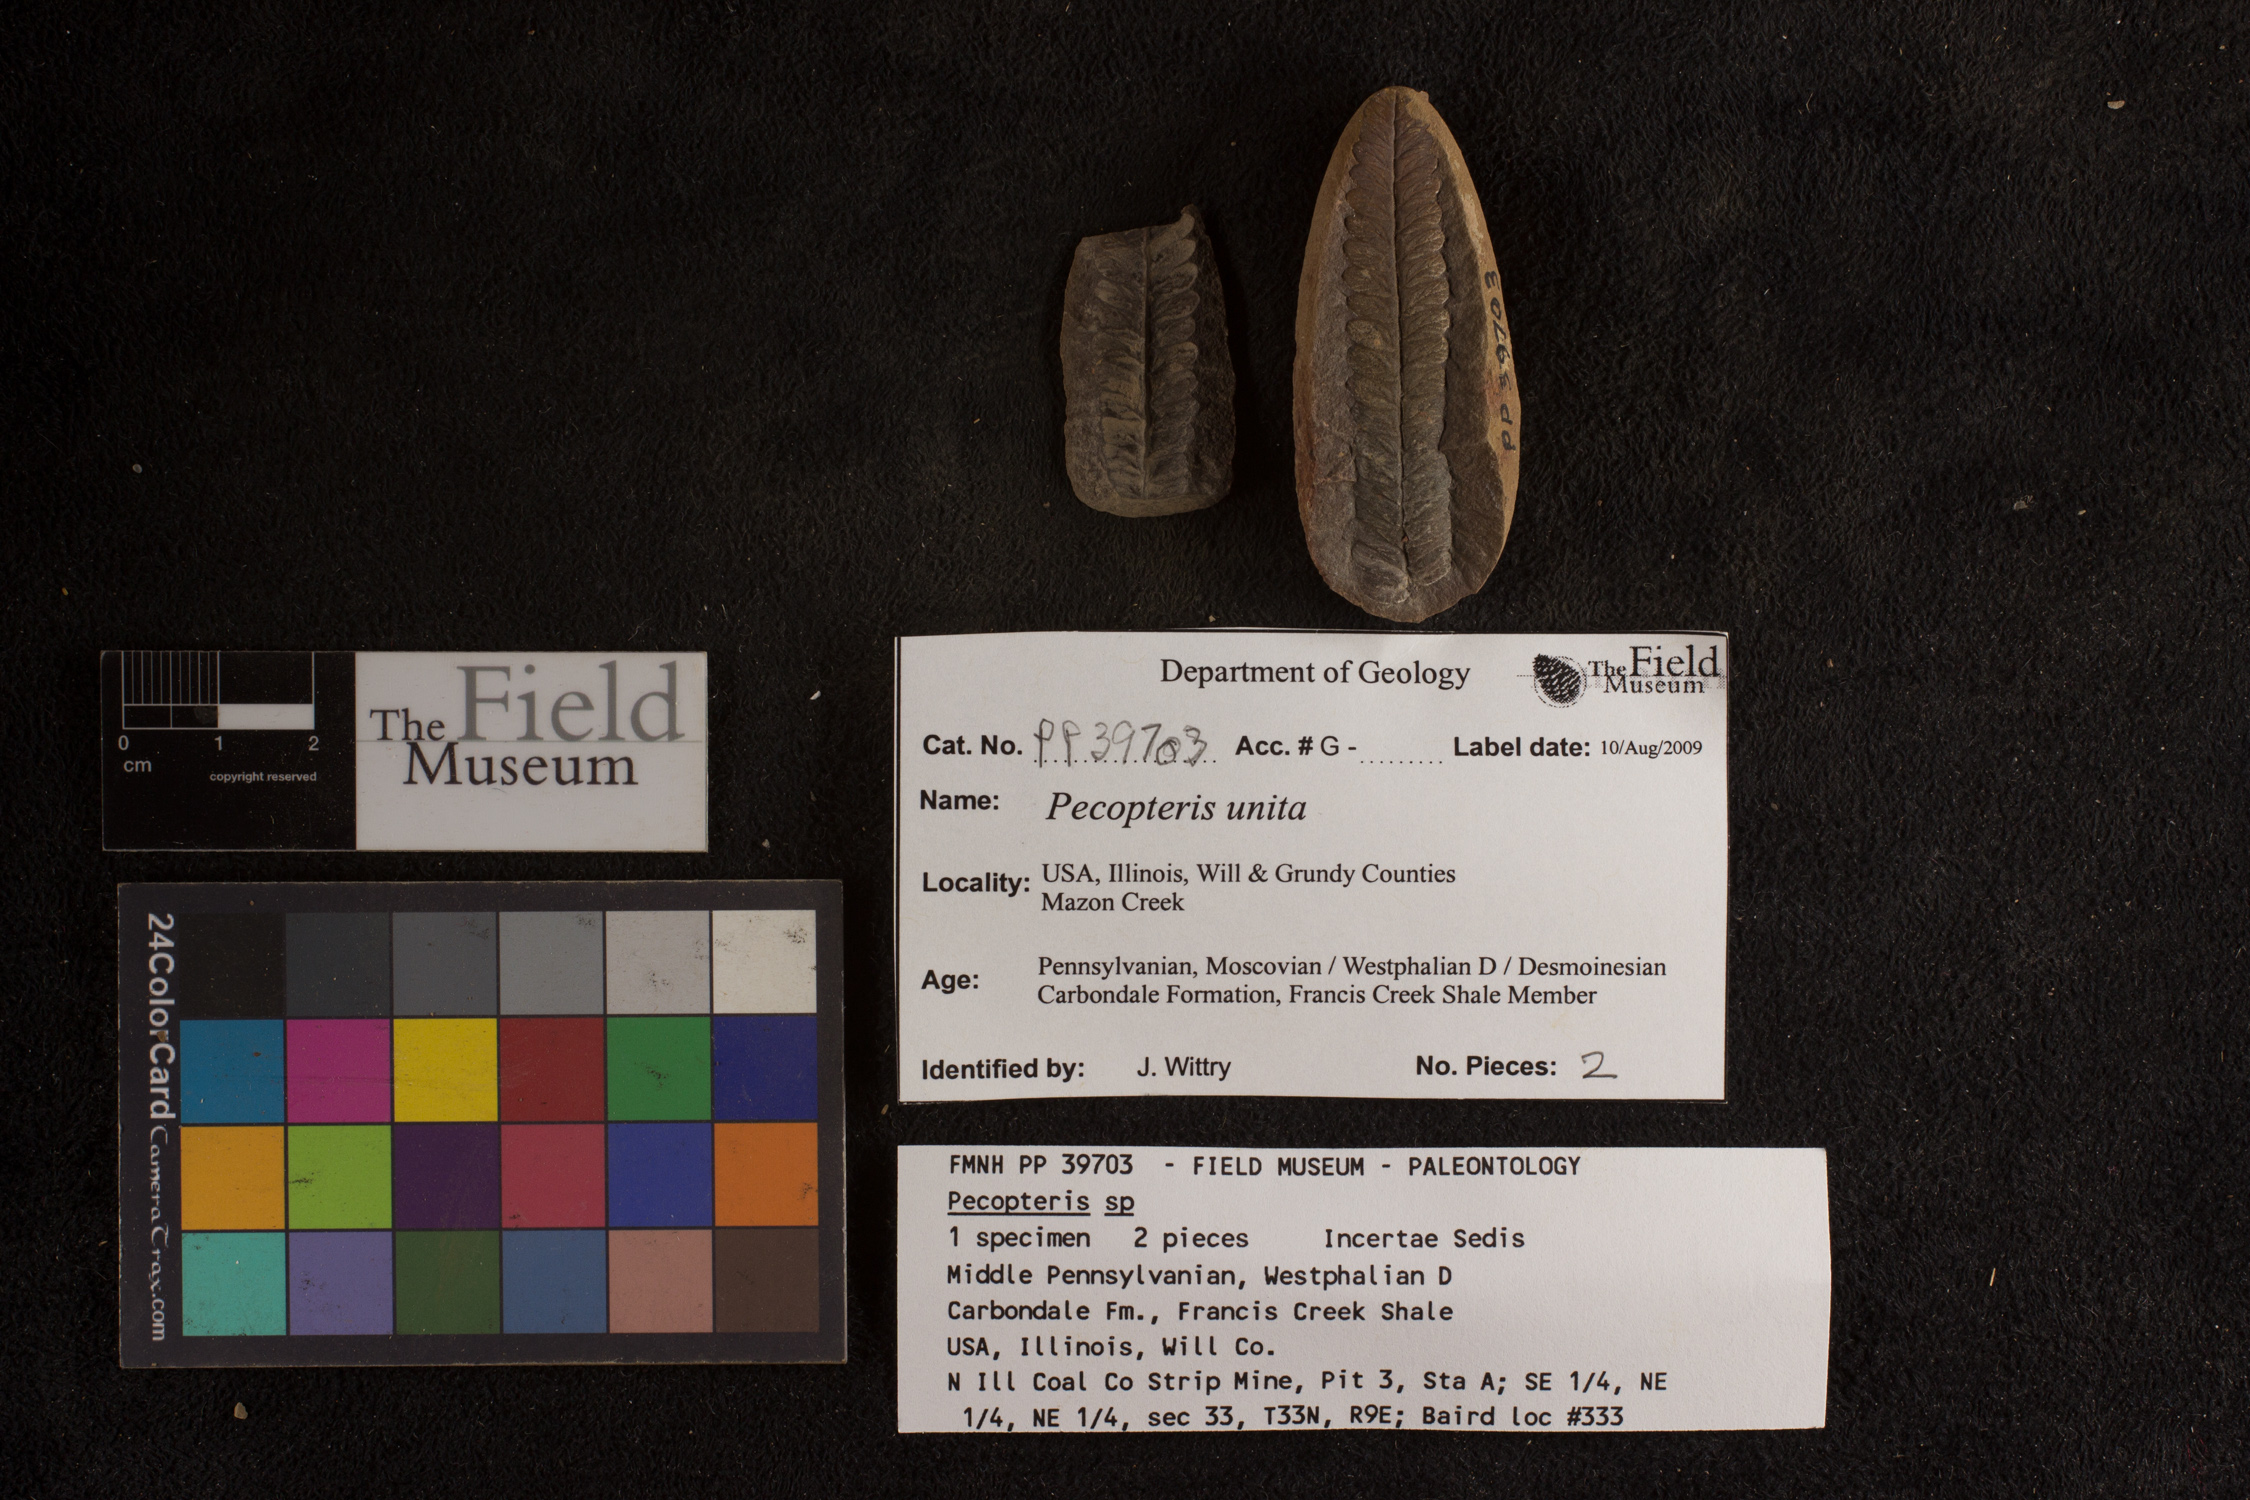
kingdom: Plantae
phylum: Tracheophyta
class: Polypodiopsida
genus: Diplazites
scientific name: Diplazites
